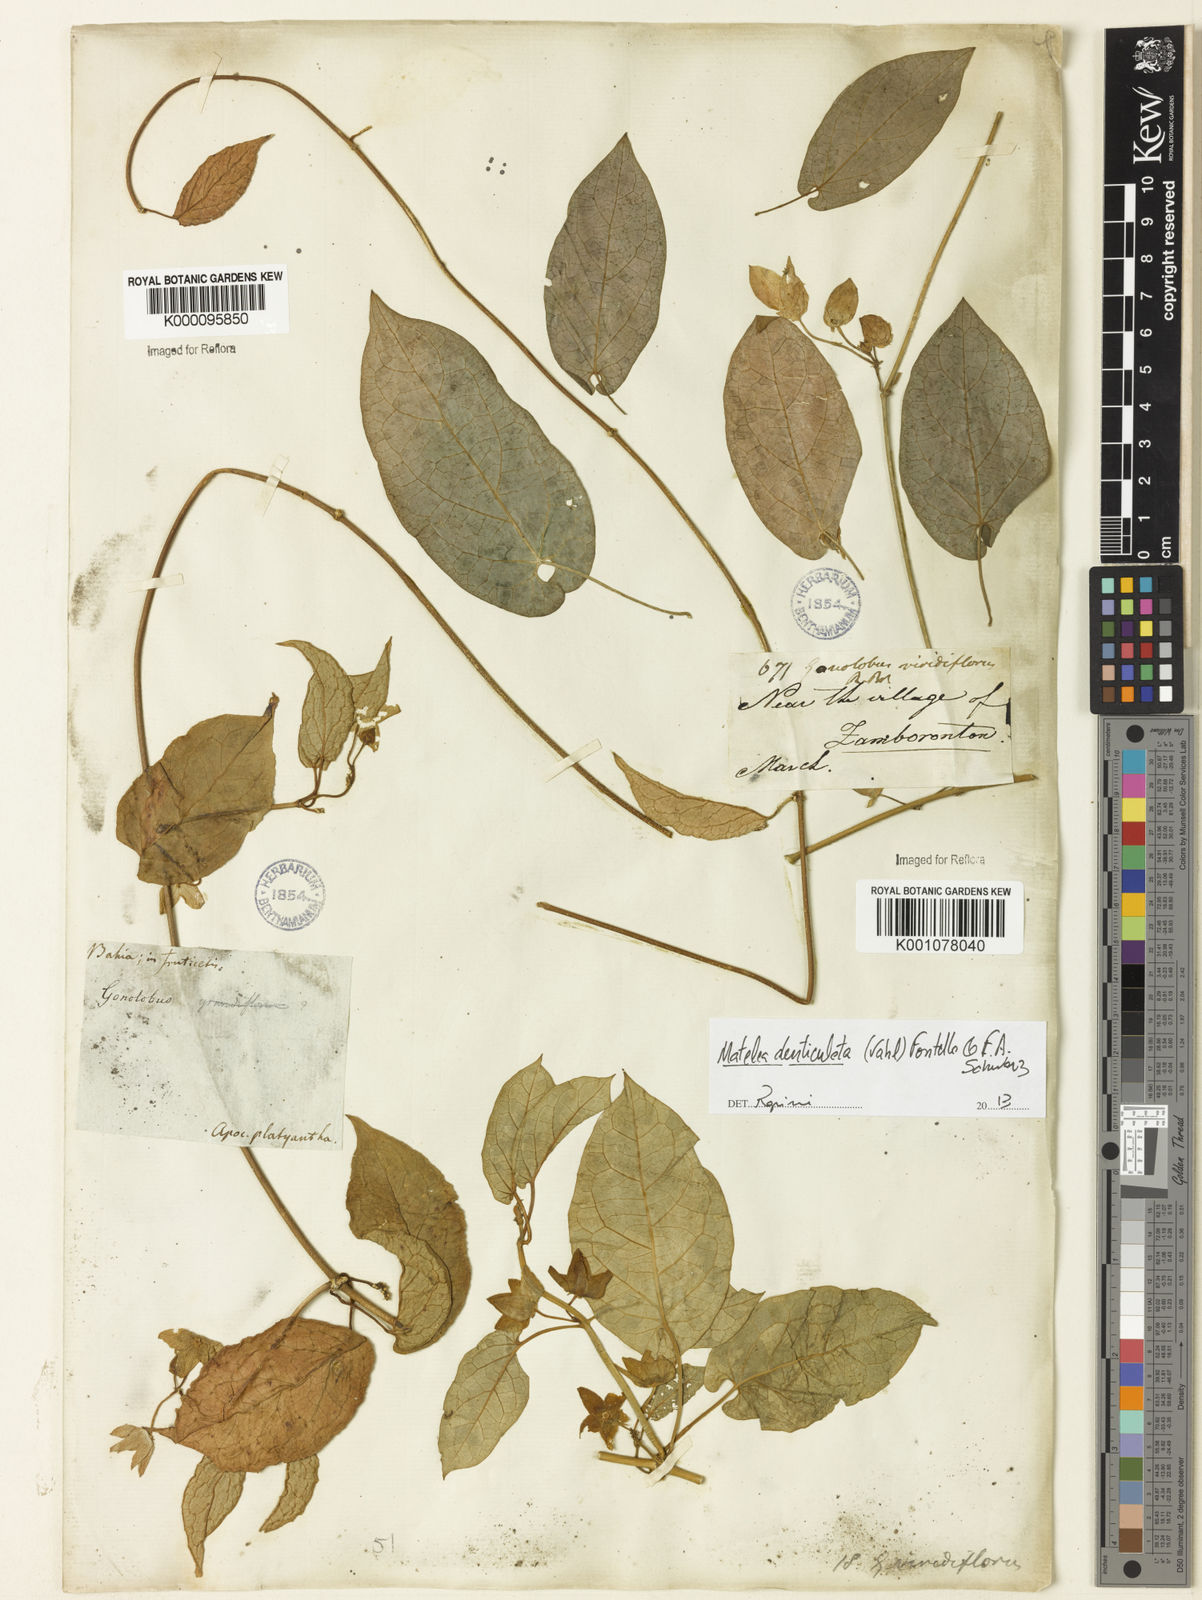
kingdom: Plantae
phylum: Tracheophyta
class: Magnoliopsida
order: Gentianales
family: Apocynaceae
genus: Chloropetalum
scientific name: Chloropetalum denticulatum
